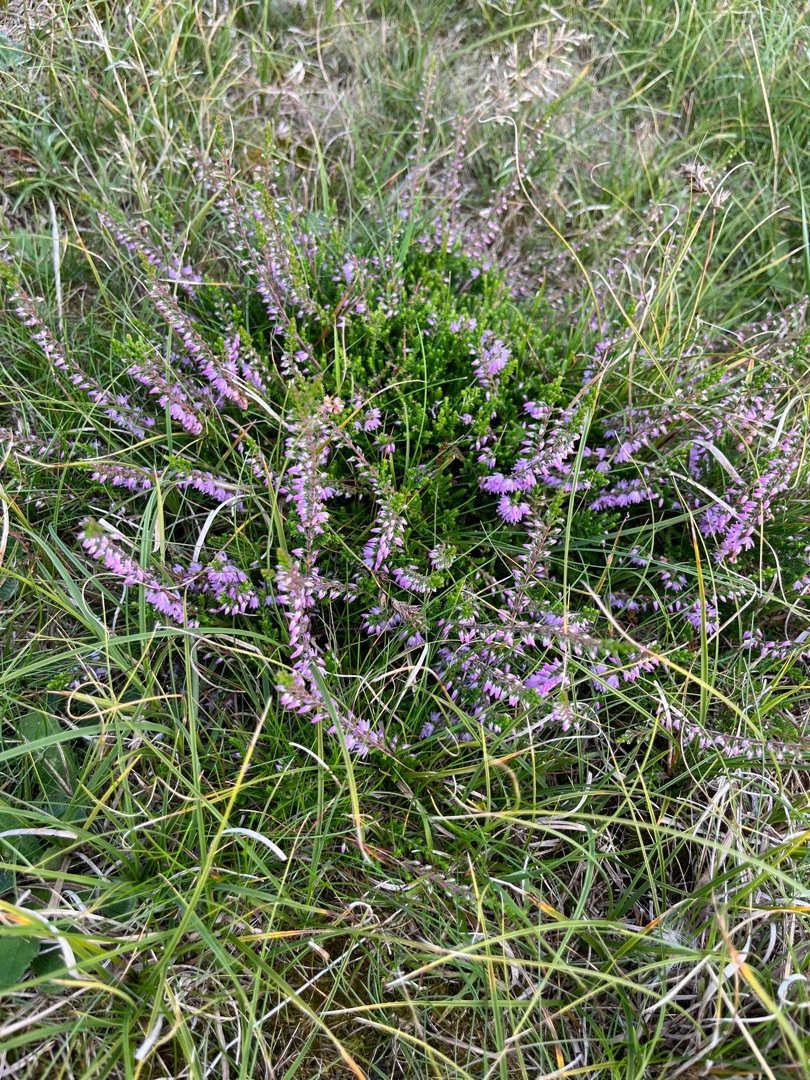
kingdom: Plantae
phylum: Tracheophyta
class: Magnoliopsida
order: Ericales
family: Ericaceae
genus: Calluna
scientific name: Calluna vulgaris
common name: Hedelyng
